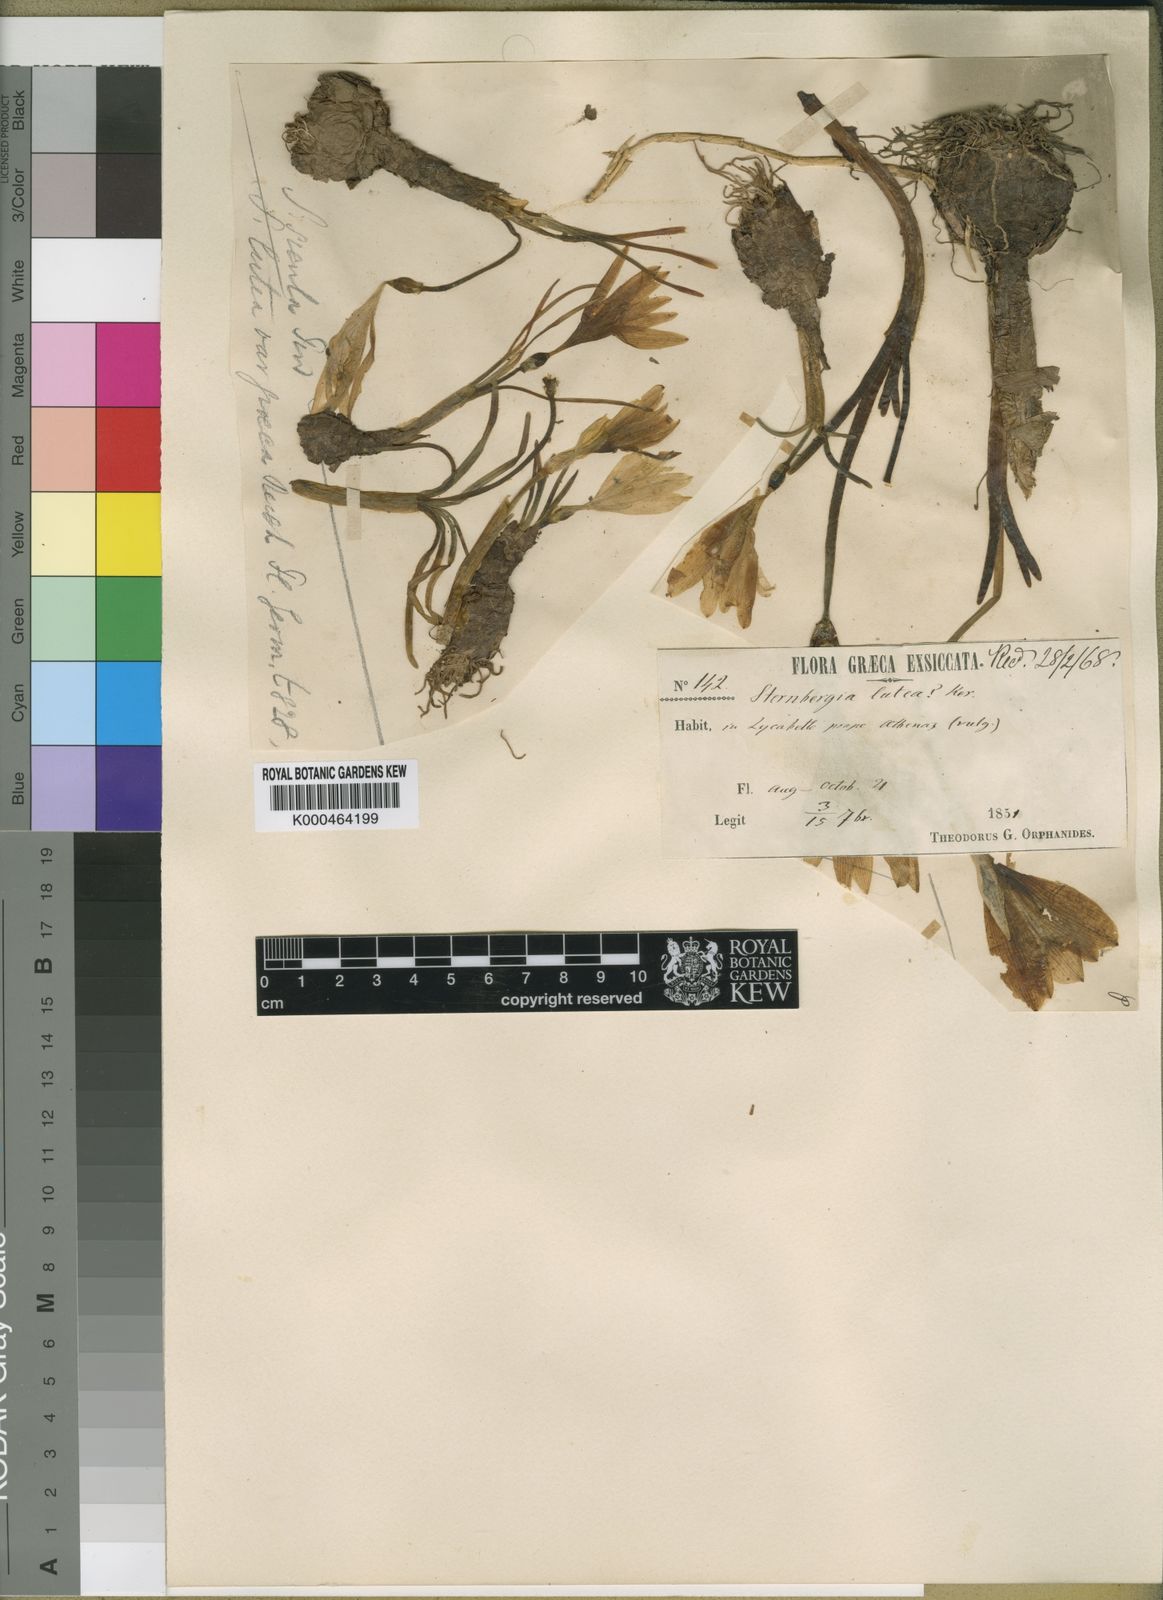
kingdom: Plantae
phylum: Tracheophyta
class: Liliopsida
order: Asparagales
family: Amaryllidaceae
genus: Sternbergia
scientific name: Sternbergia
